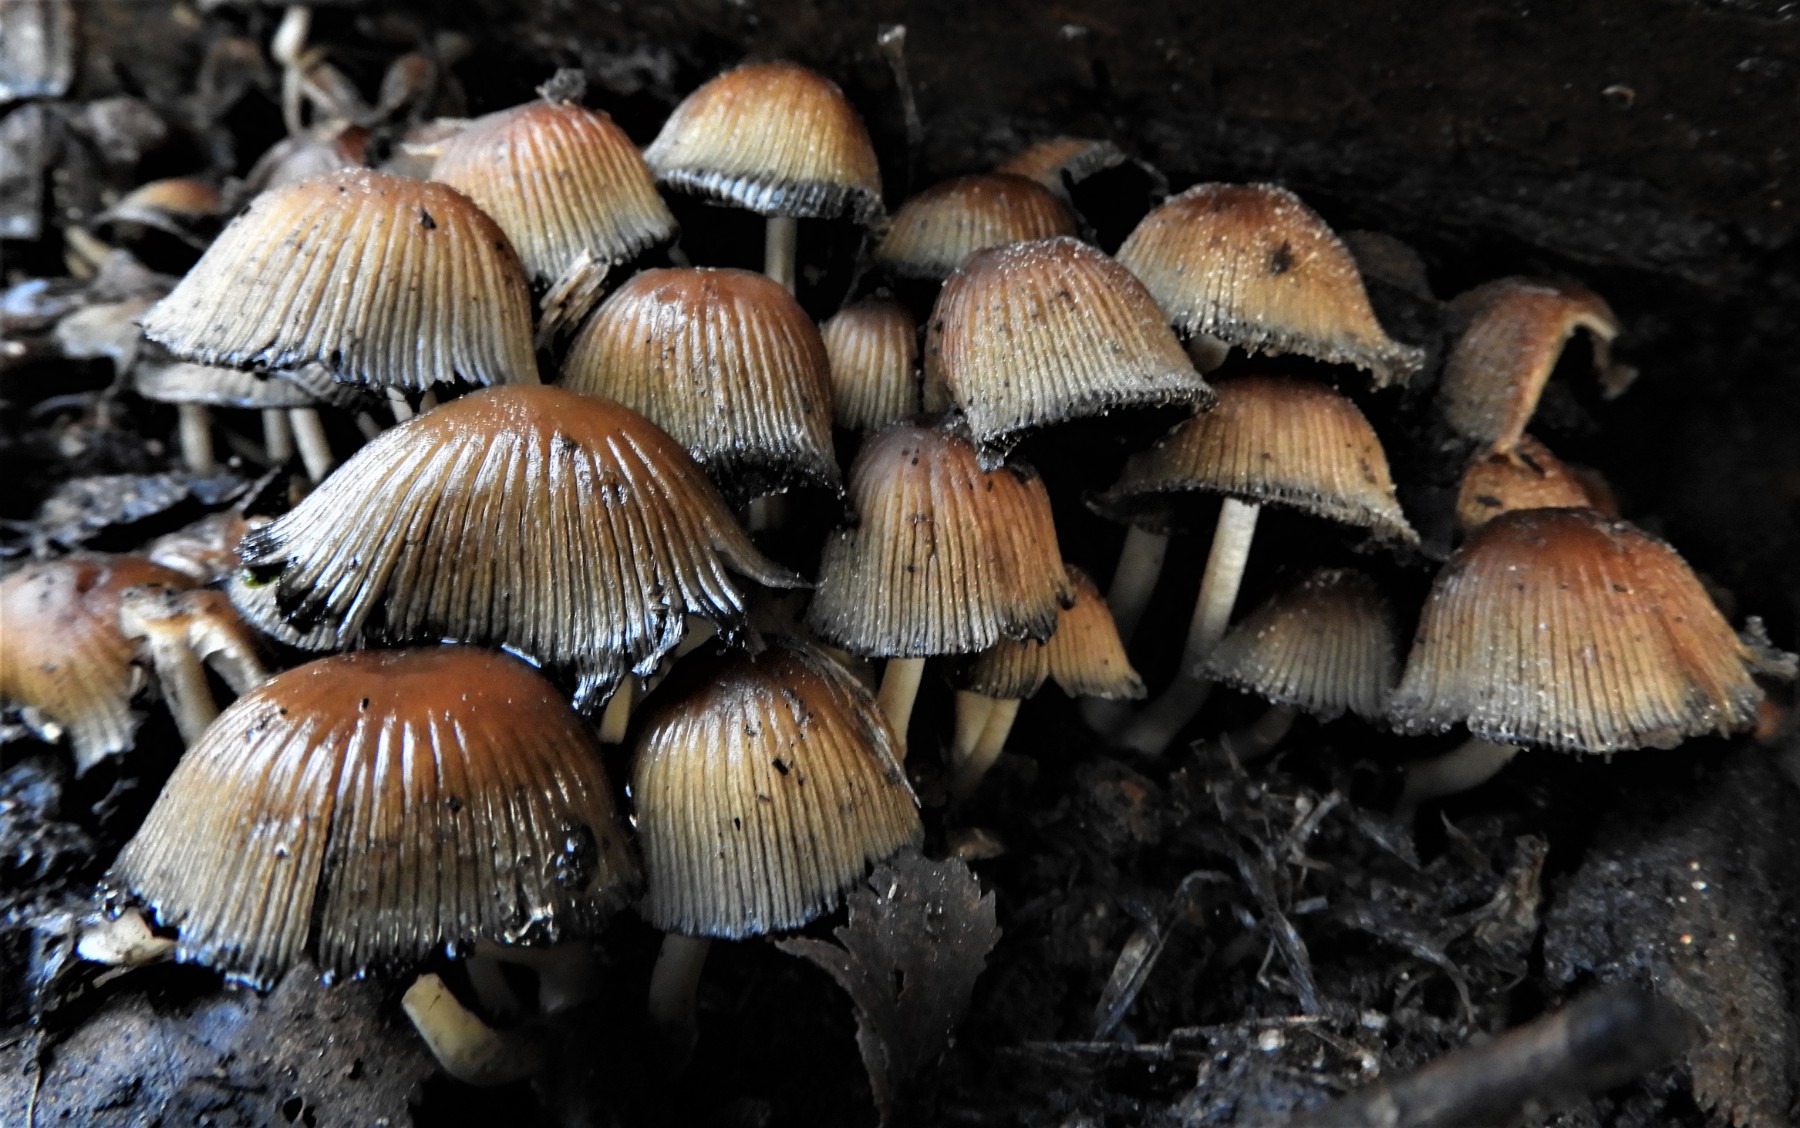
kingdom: Fungi
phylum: Basidiomycota
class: Agaricomycetes
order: Agaricales
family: Psathyrellaceae
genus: Coprinellus
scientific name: Coprinellus micaceus
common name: glimmer-blækhat
